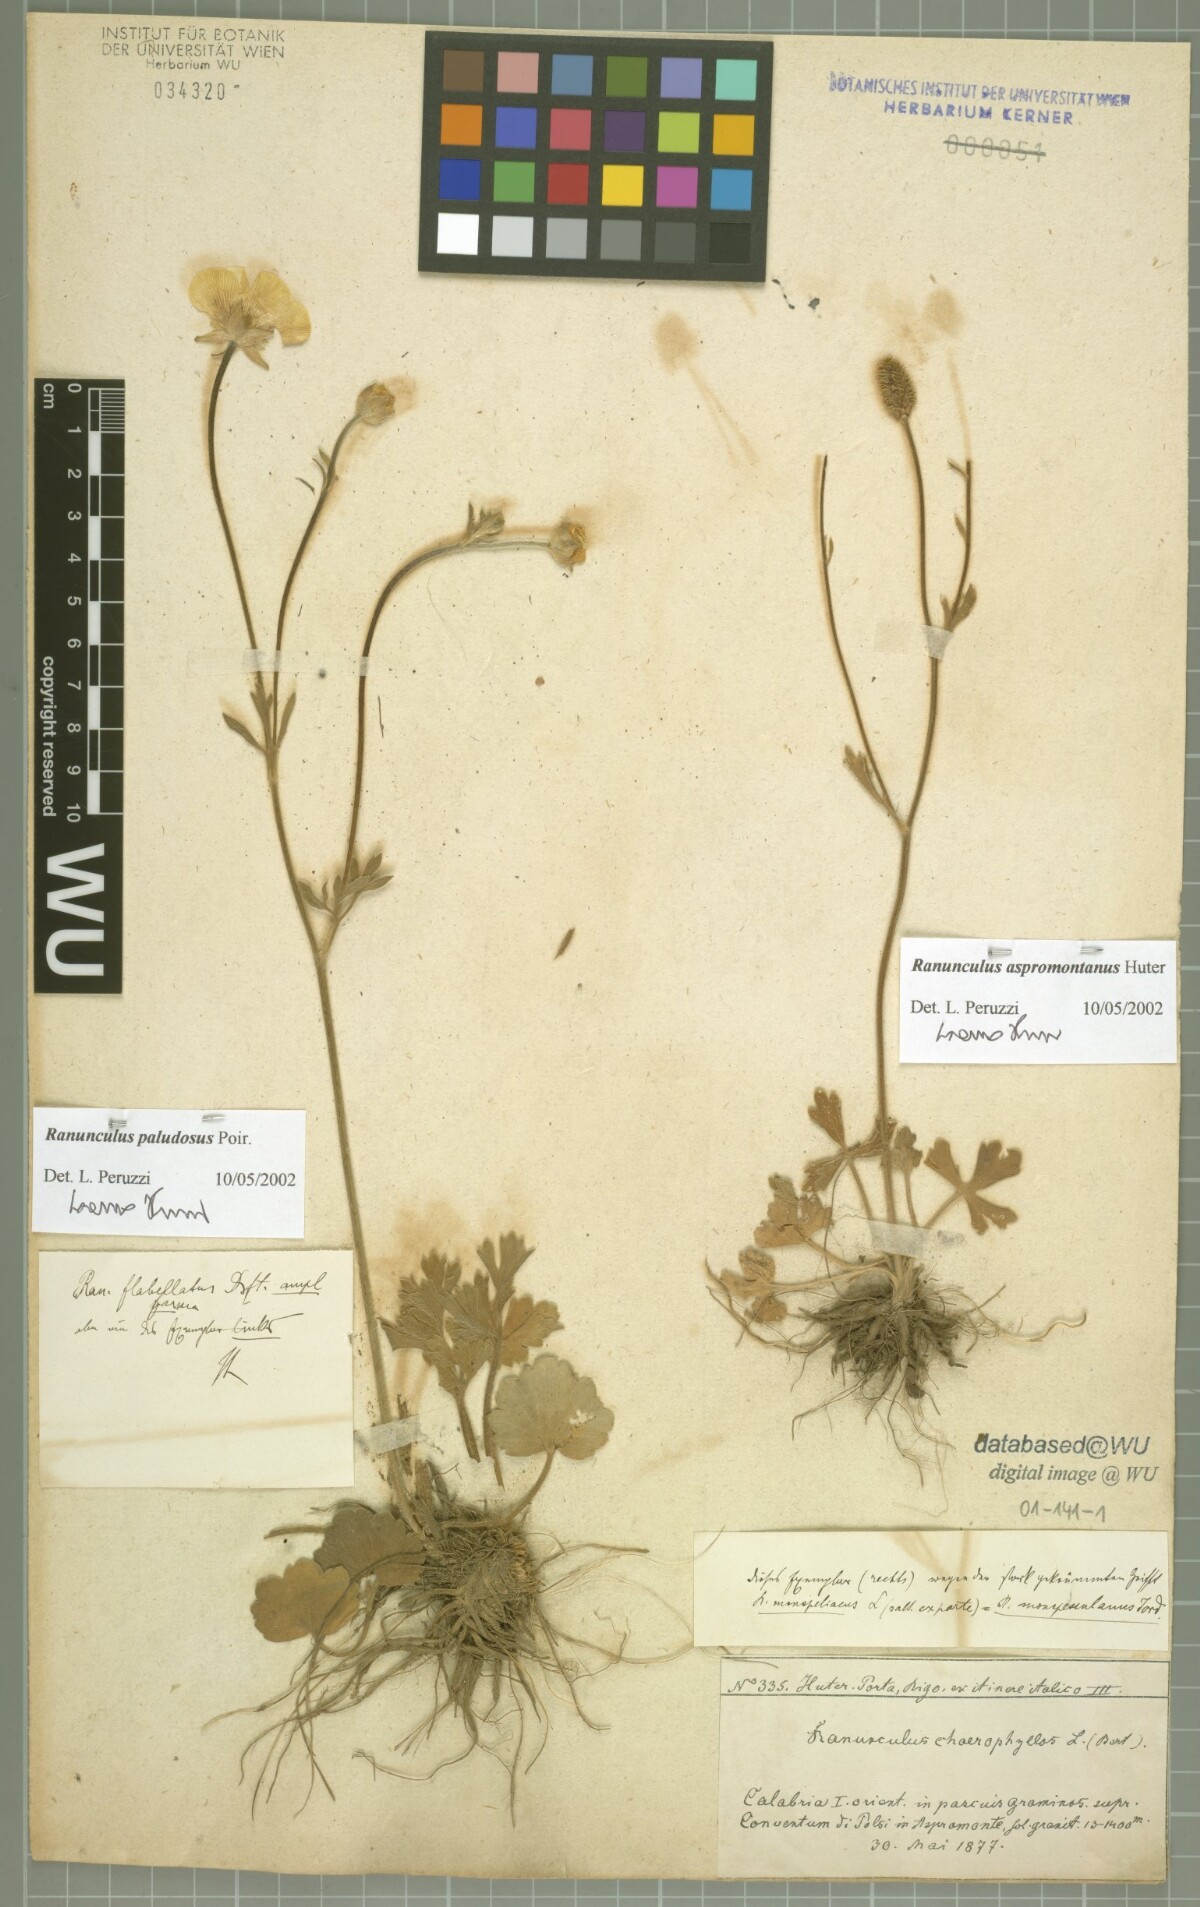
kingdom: Plantae
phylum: Tracheophyta
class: Magnoliopsida
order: Ranunculales
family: Ranunculaceae
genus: Ranunculus
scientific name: Ranunculus monspeliacus
